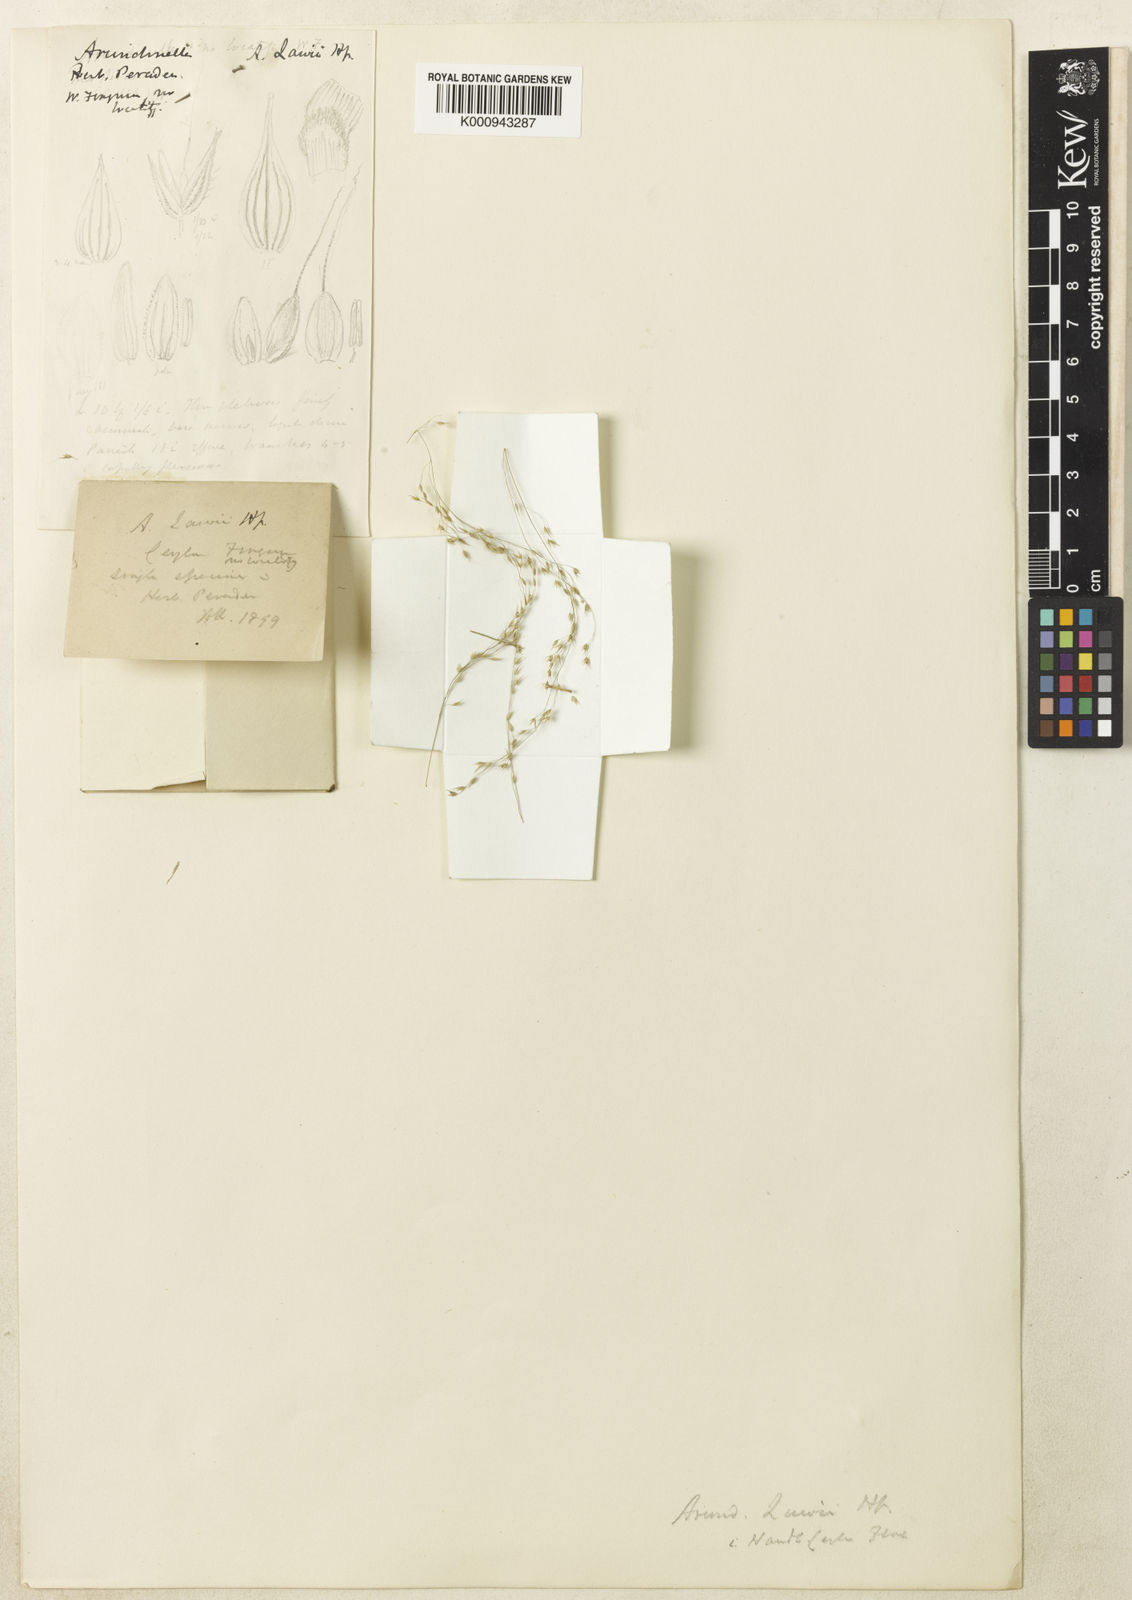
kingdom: Plantae
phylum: Tracheophyta
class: Liliopsida
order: Poales
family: Poaceae
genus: Arundinella
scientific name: Arundinella metzii
